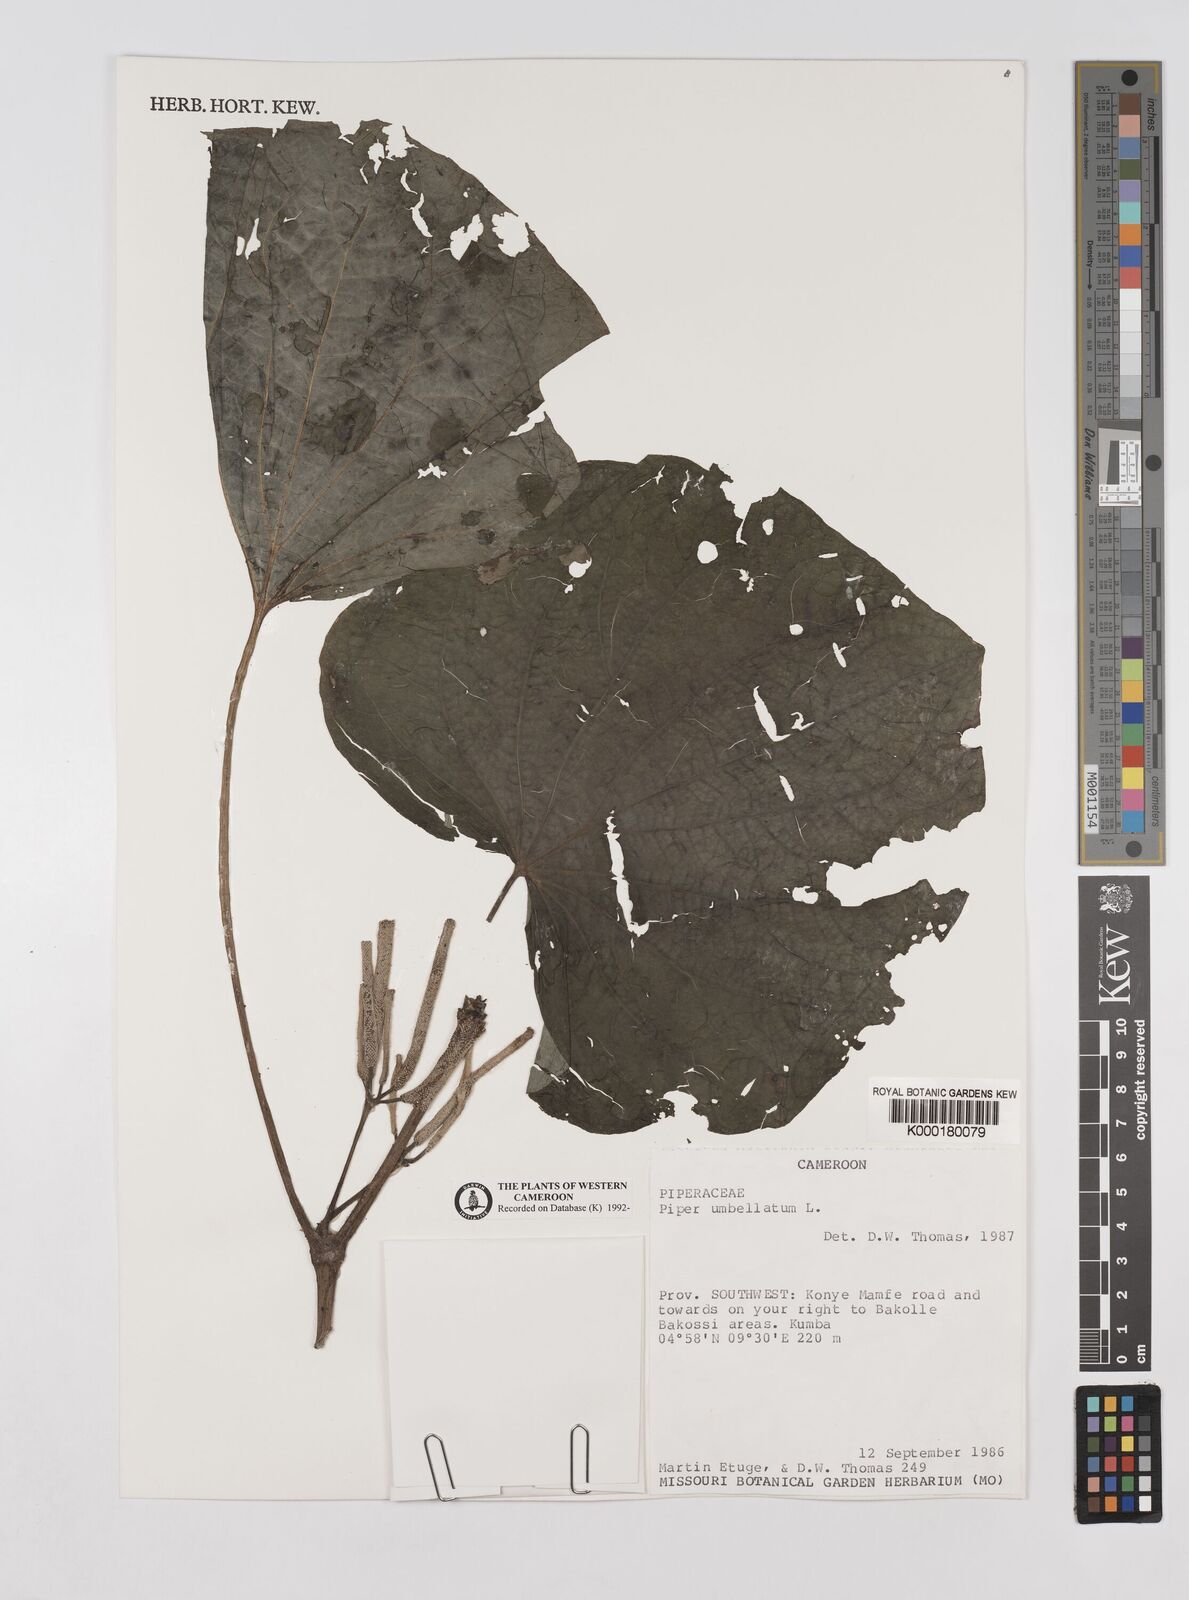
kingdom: Plantae
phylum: Tracheophyta
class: Magnoliopsida
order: Piperales
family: Piperaceae
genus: Piper
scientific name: Piper umbellatum
